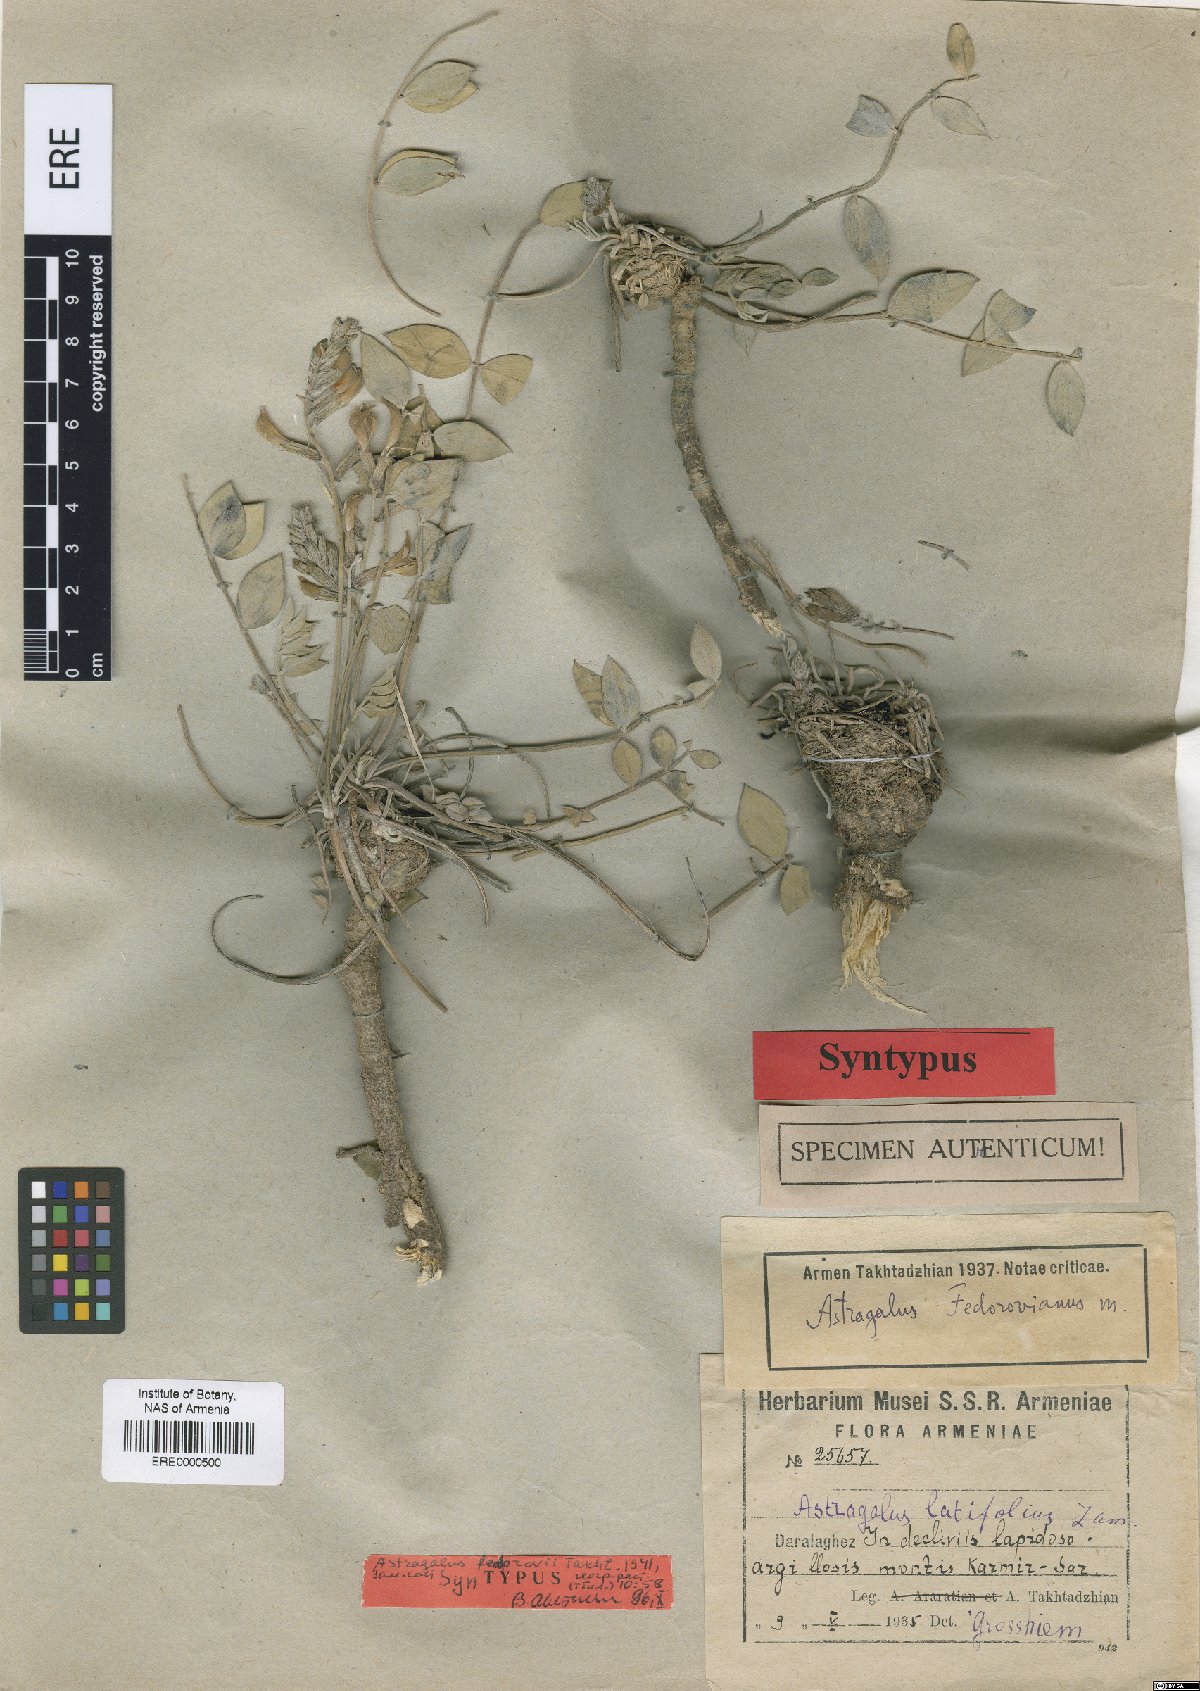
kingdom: Plantae
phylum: Tracheophyta
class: Magnoliopsida
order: Fabales
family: Fabaceae
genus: Astragalus
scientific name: Astragalus latifolius
